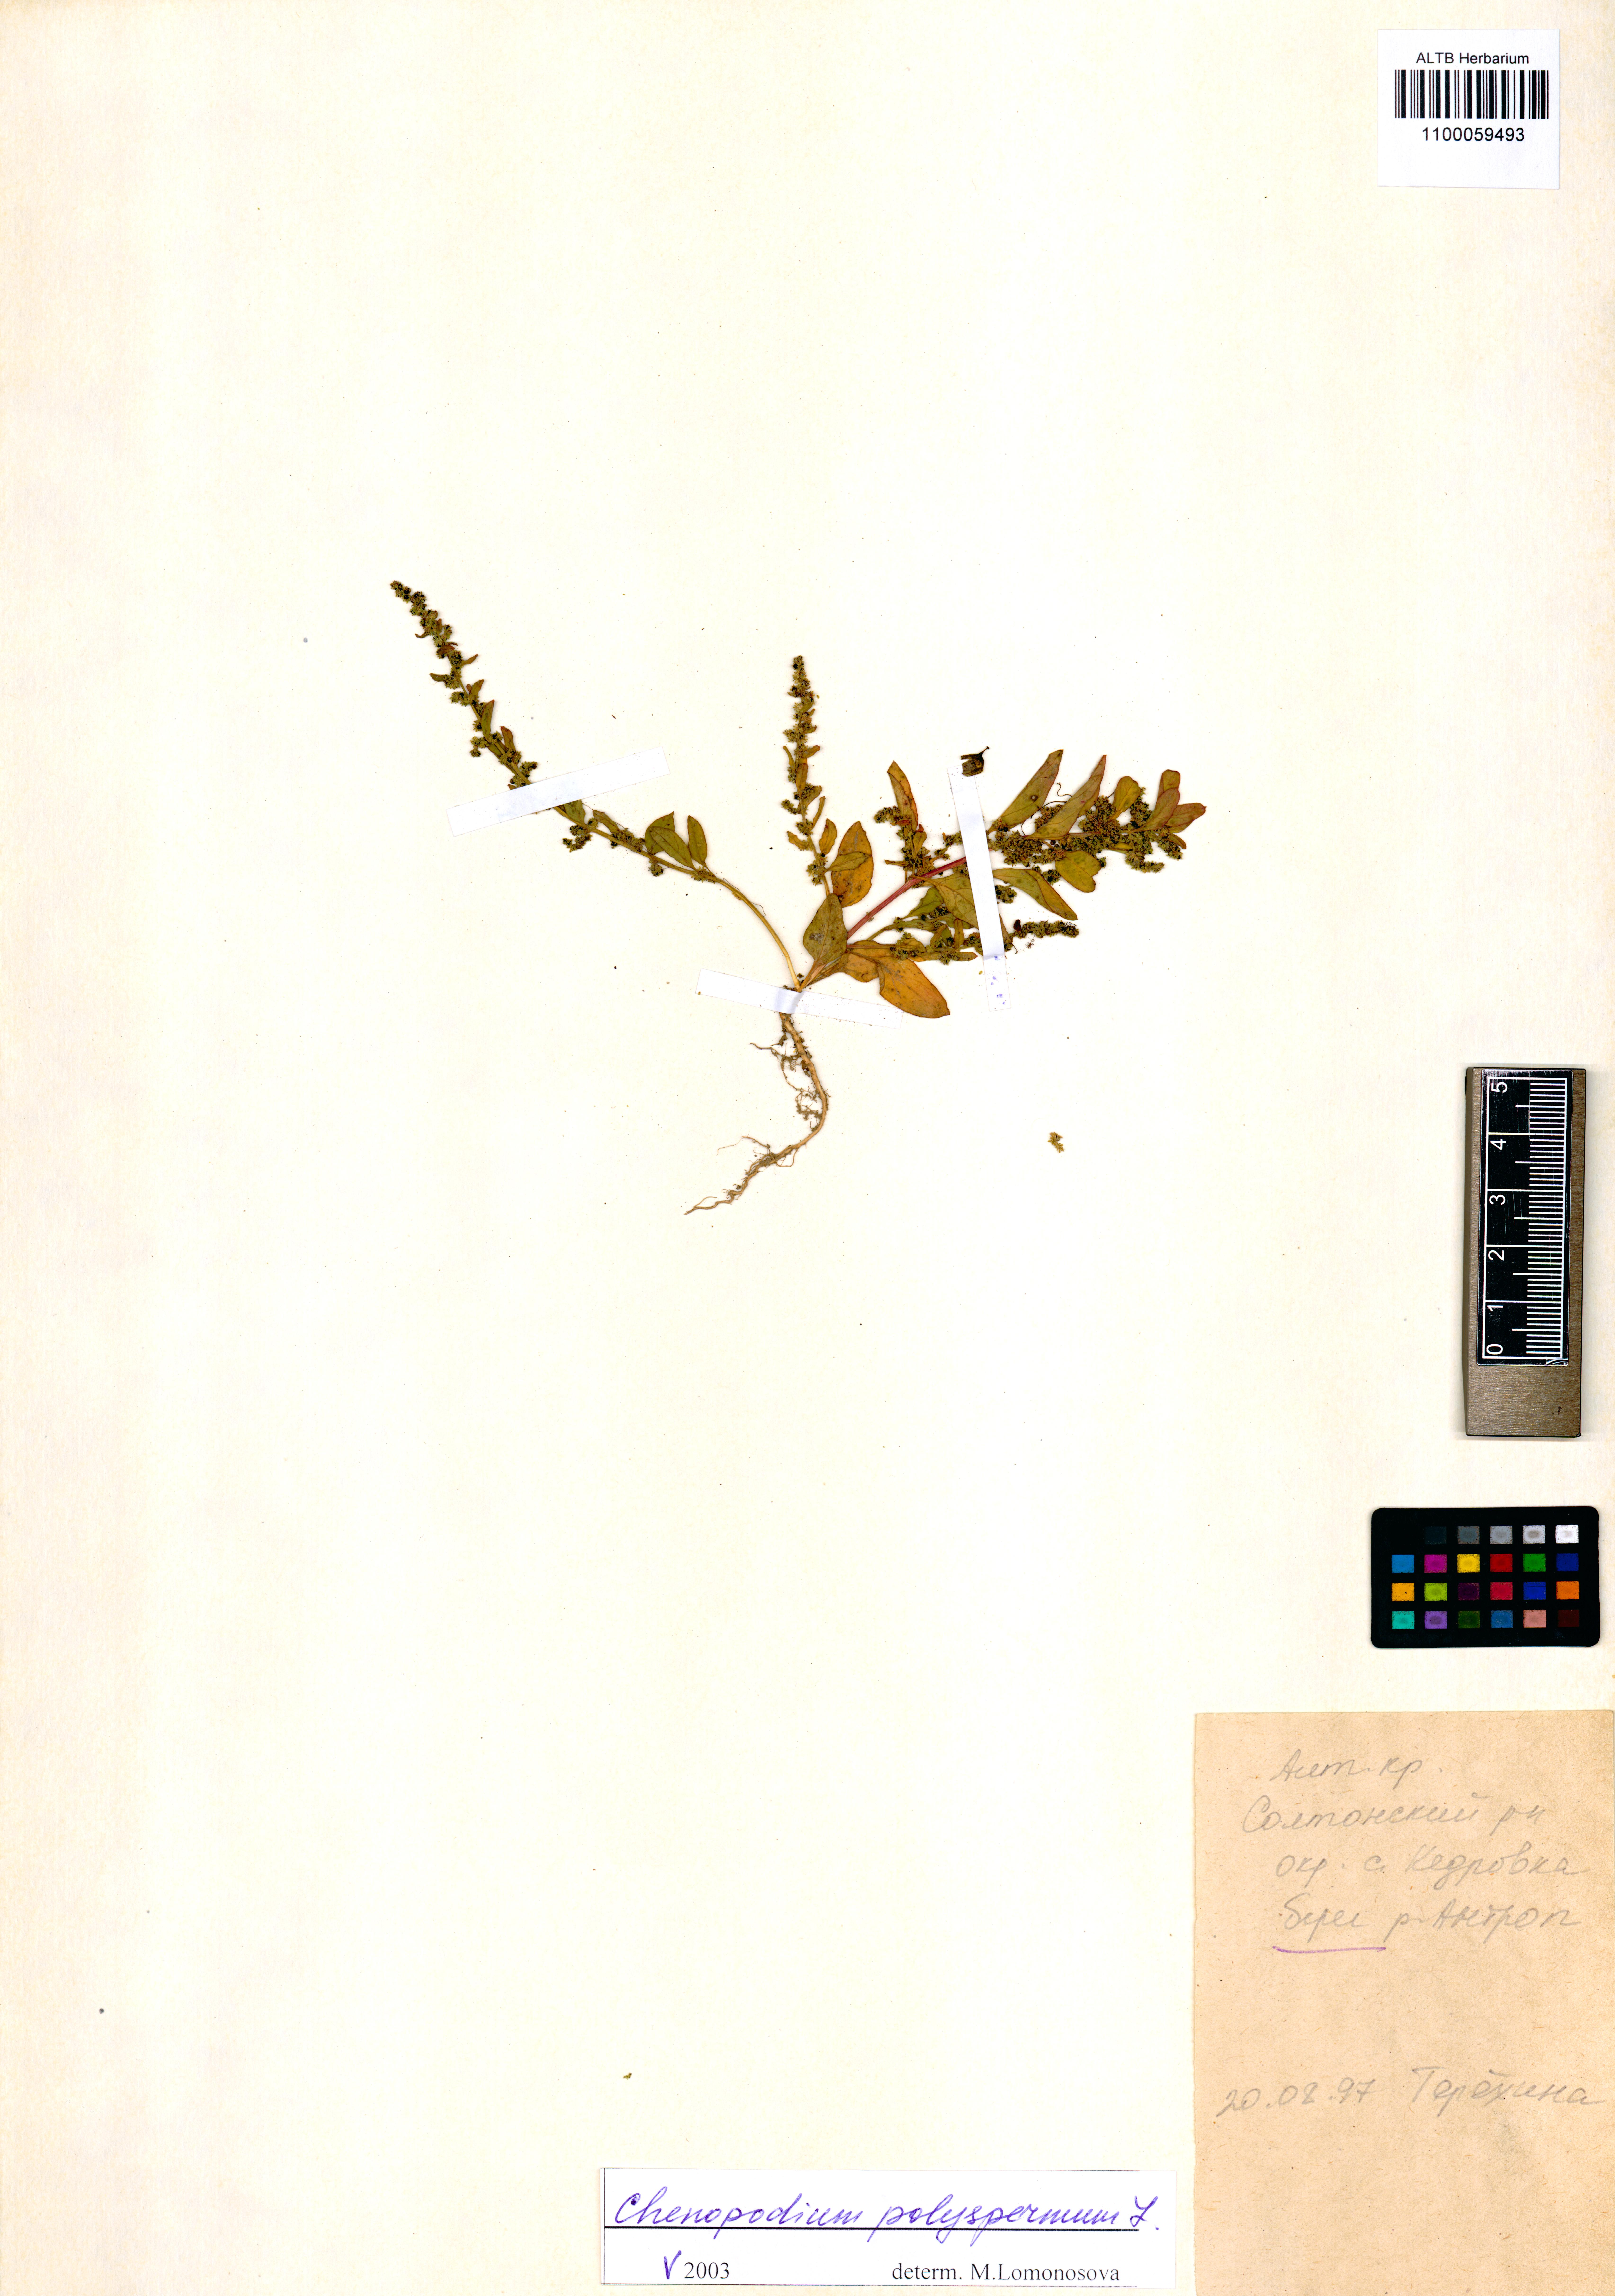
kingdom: Plantae
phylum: Tracheophyta
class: Magnoliopsida
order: Caryophyllales
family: Amaranthaceae
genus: Lipandra
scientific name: Lipandra polysperma
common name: Many-seed goosefoot
